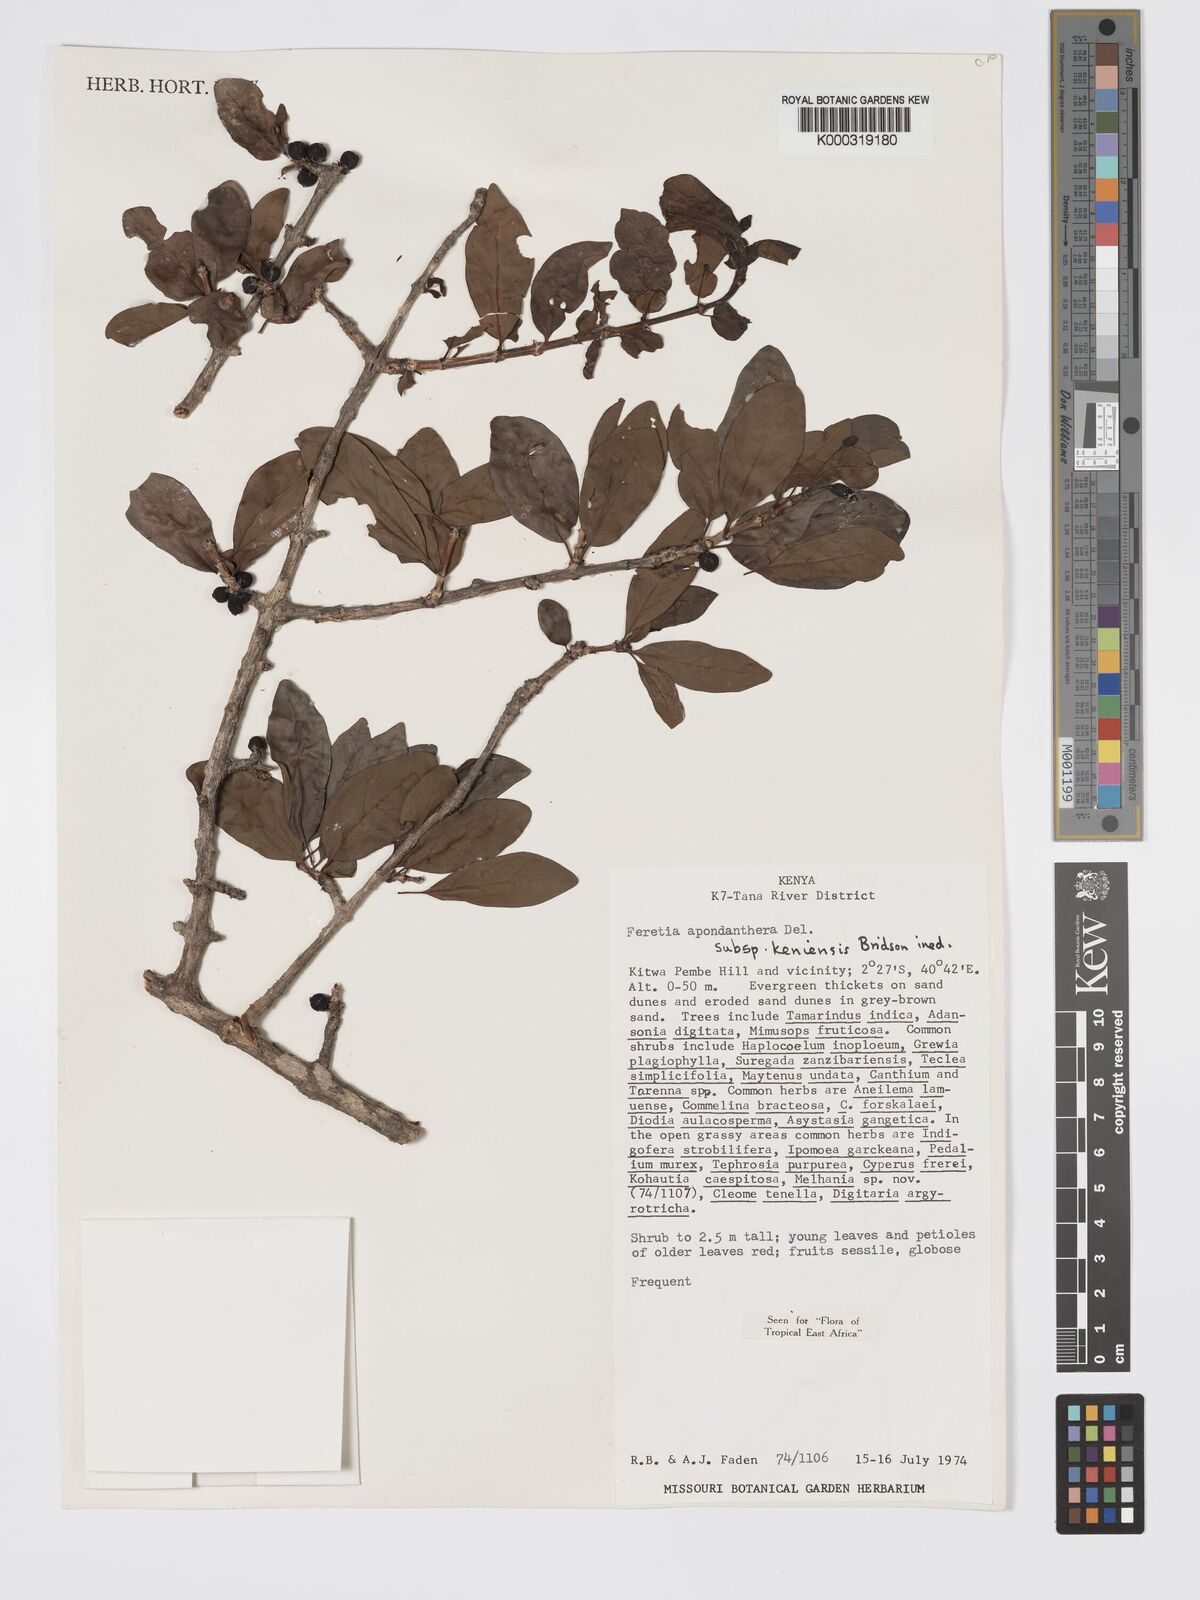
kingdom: Plantae
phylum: Tracheophyta
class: Magnoliopsida
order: Gentianales
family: Rubiaceae
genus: Feretia
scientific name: Feretia apodanthera
